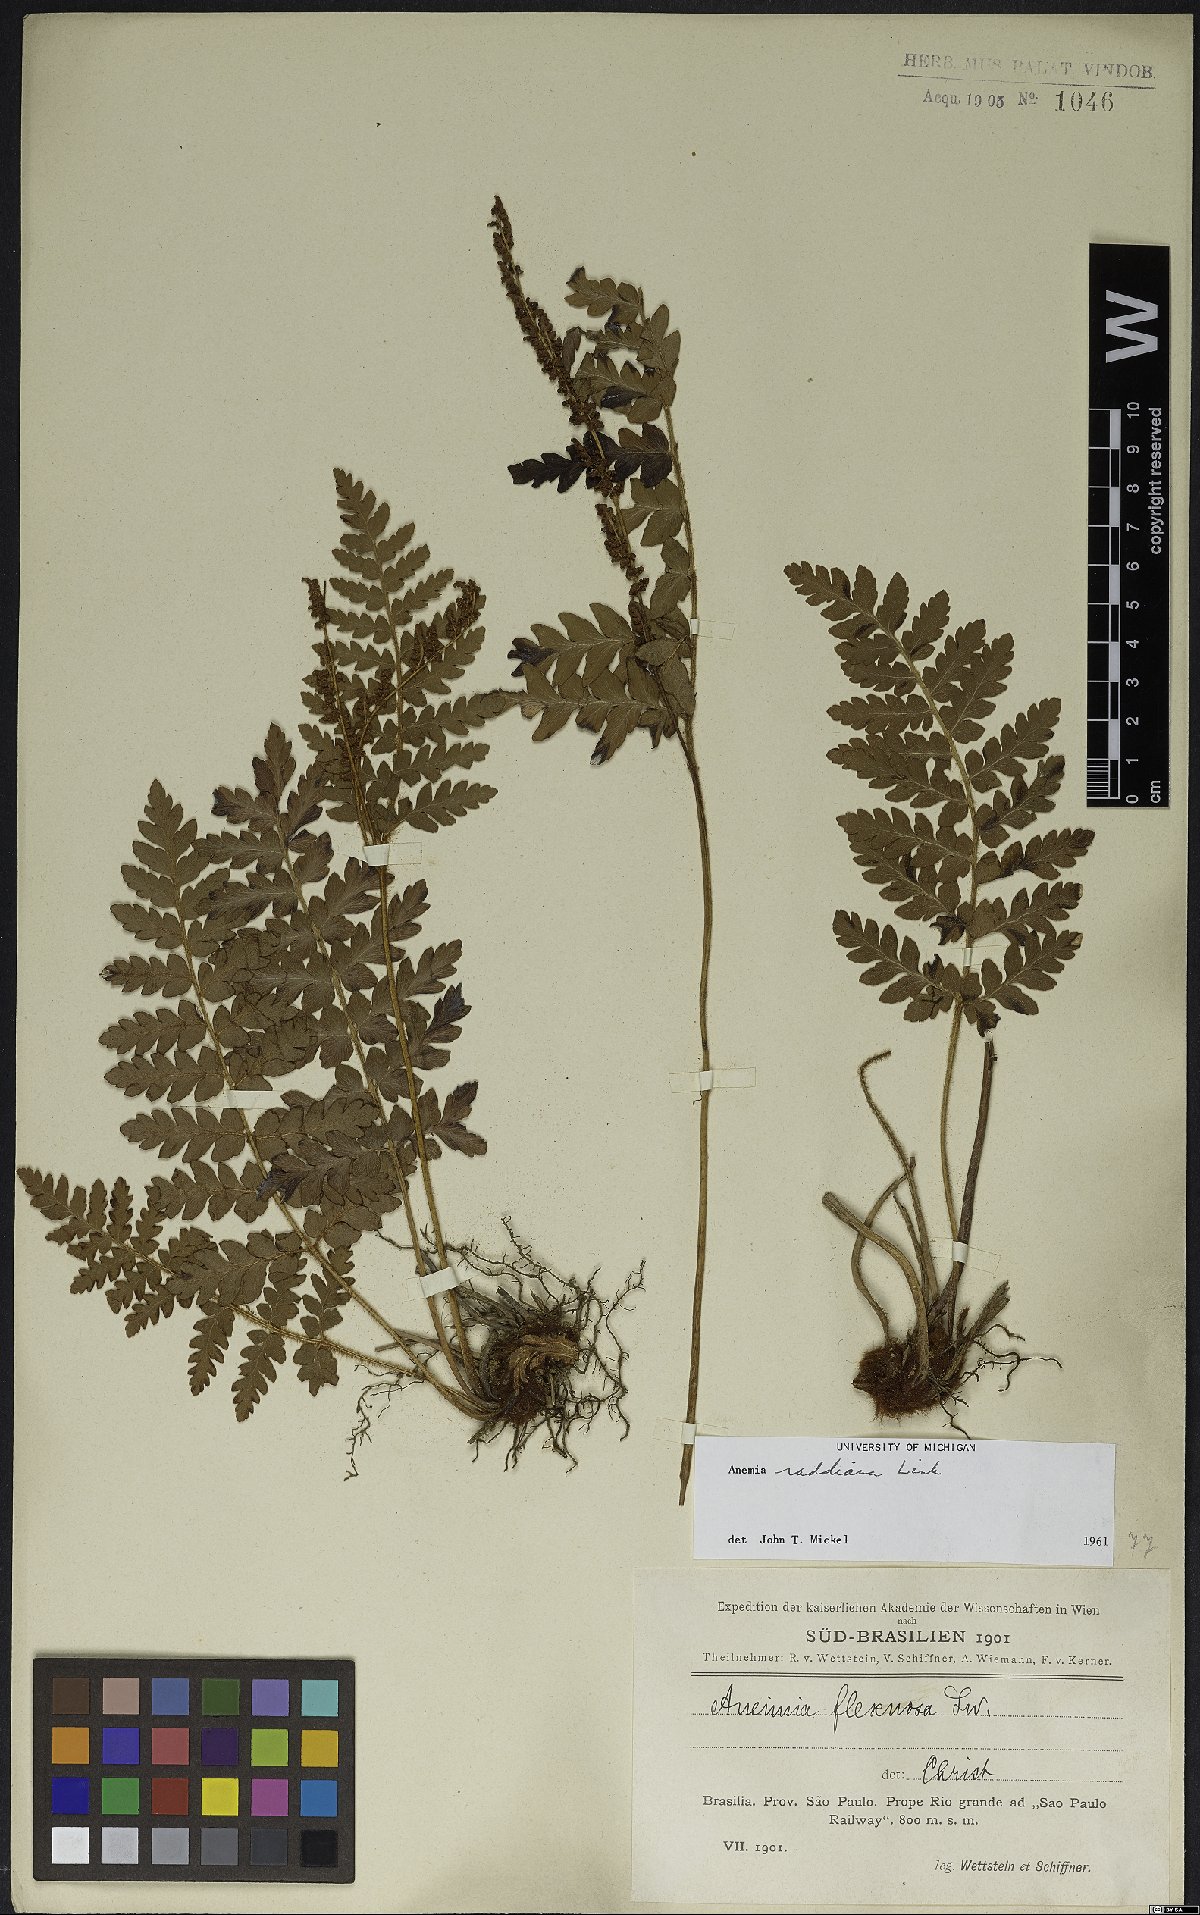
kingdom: Plantae
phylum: Tracheophyta
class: Polypodiopsida
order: Schizaeales
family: Anemiaceae
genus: Anemia
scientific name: Anemia raddiana
